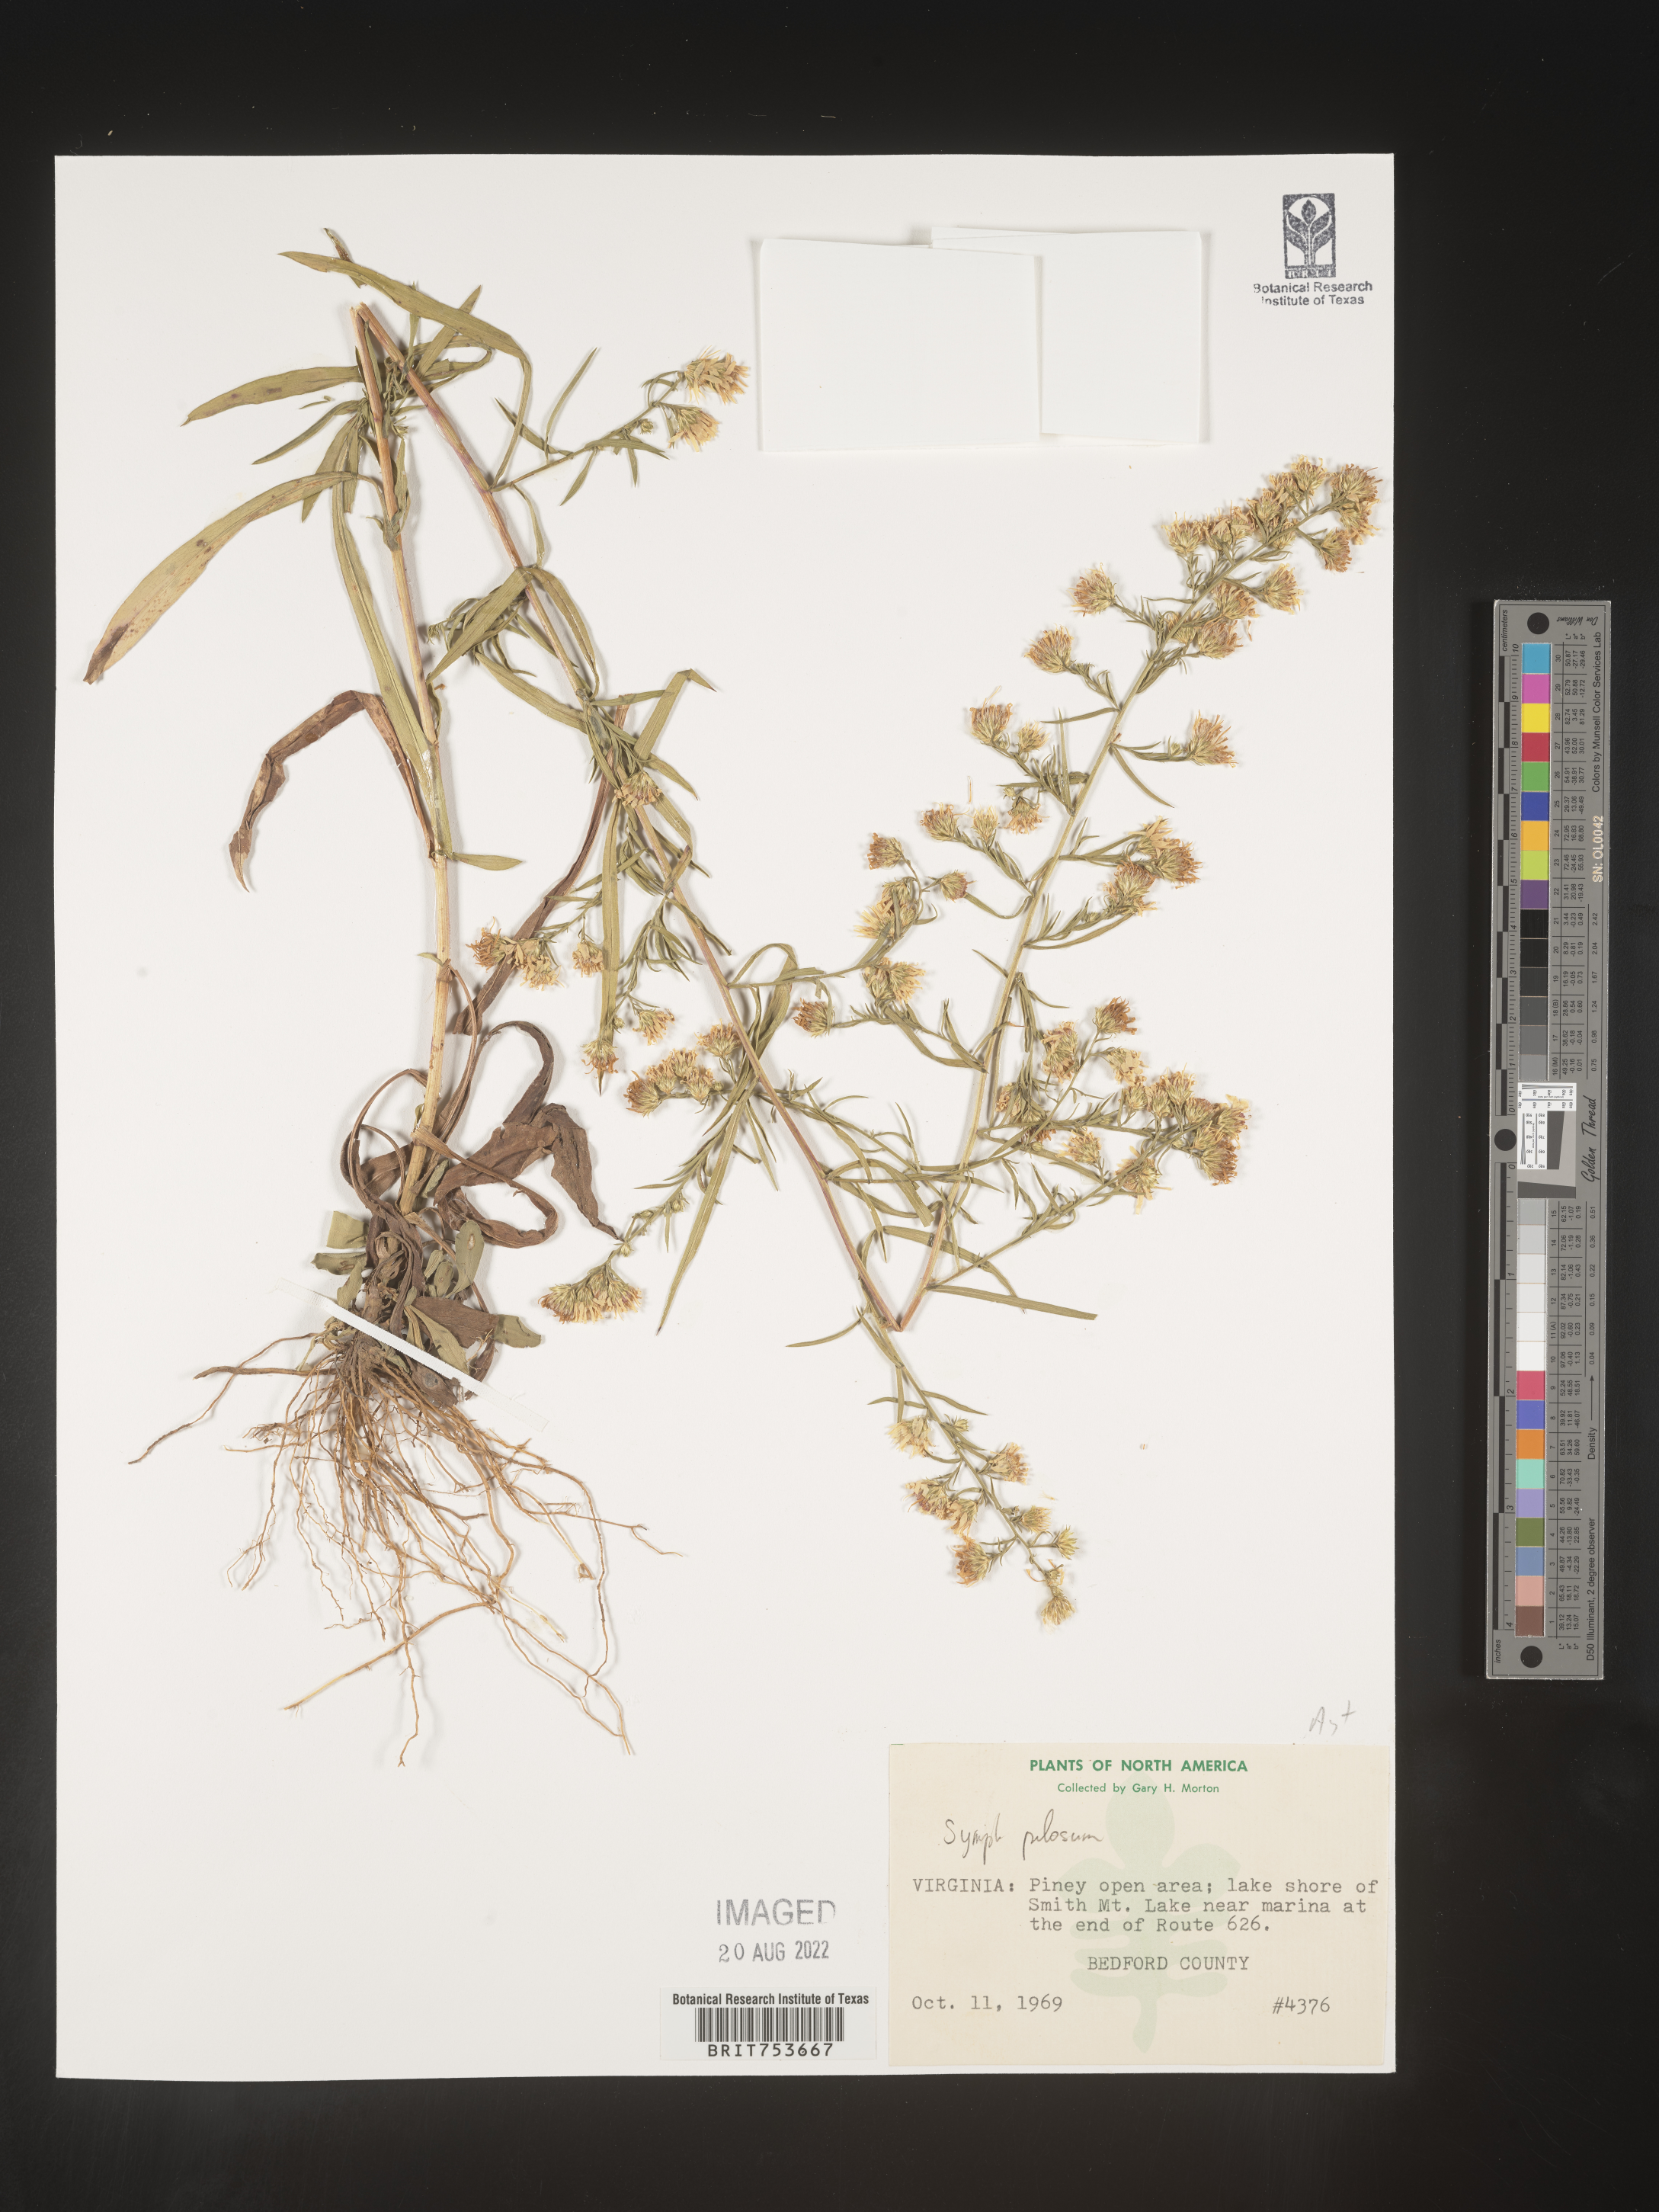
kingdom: Plantae
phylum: Tracheophyta
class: Magnoliopsida
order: Asterales
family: Asteraceae
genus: Symphyotrichum
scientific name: Symphyotrichum pilosum
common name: Awl aster
